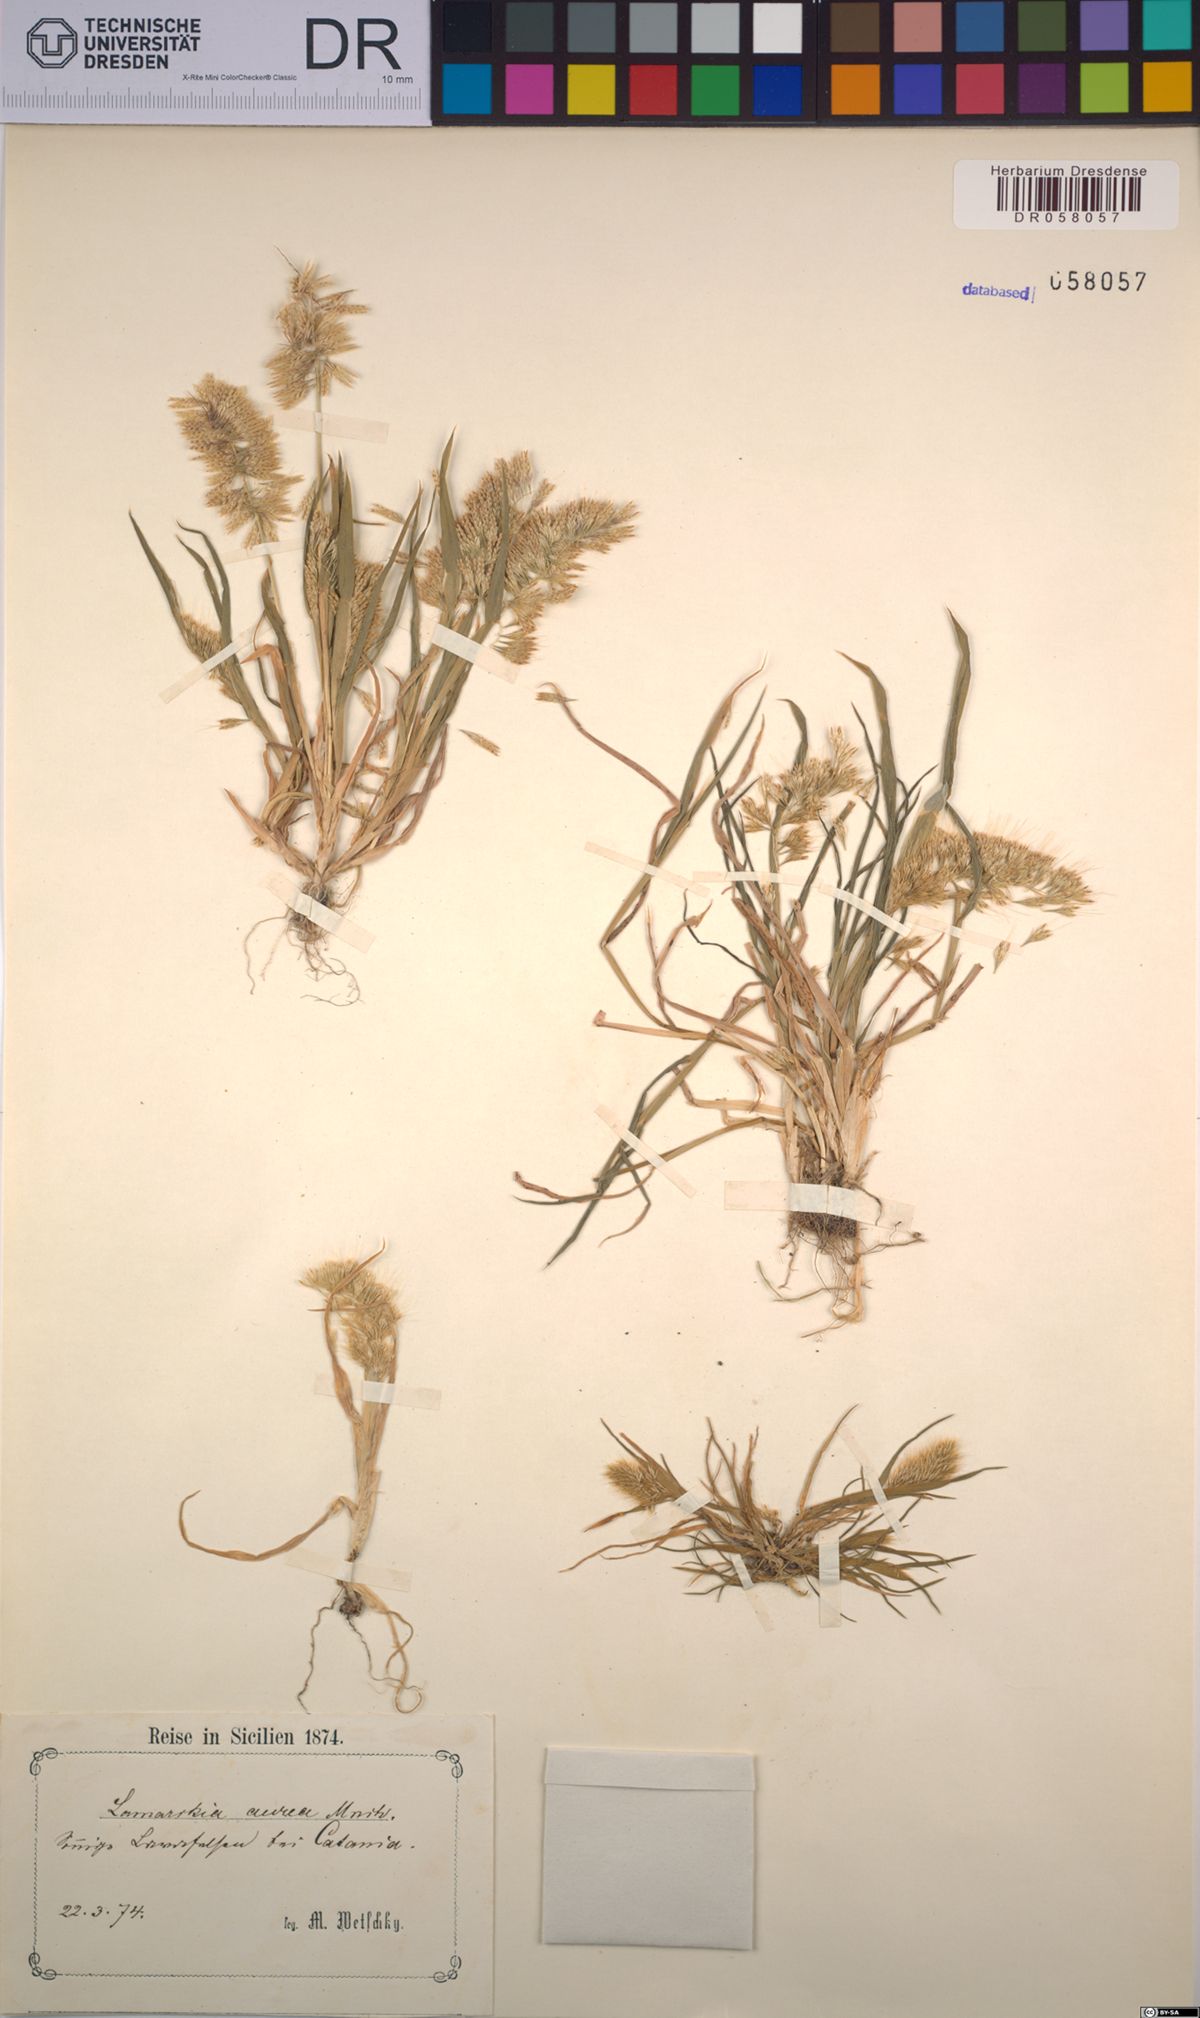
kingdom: Plantae
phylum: Tracheophyta
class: Liliopsida
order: Poales
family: Poaceae
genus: Lamarckia
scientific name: Lamarckia aurea
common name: Golden dog's-tail
